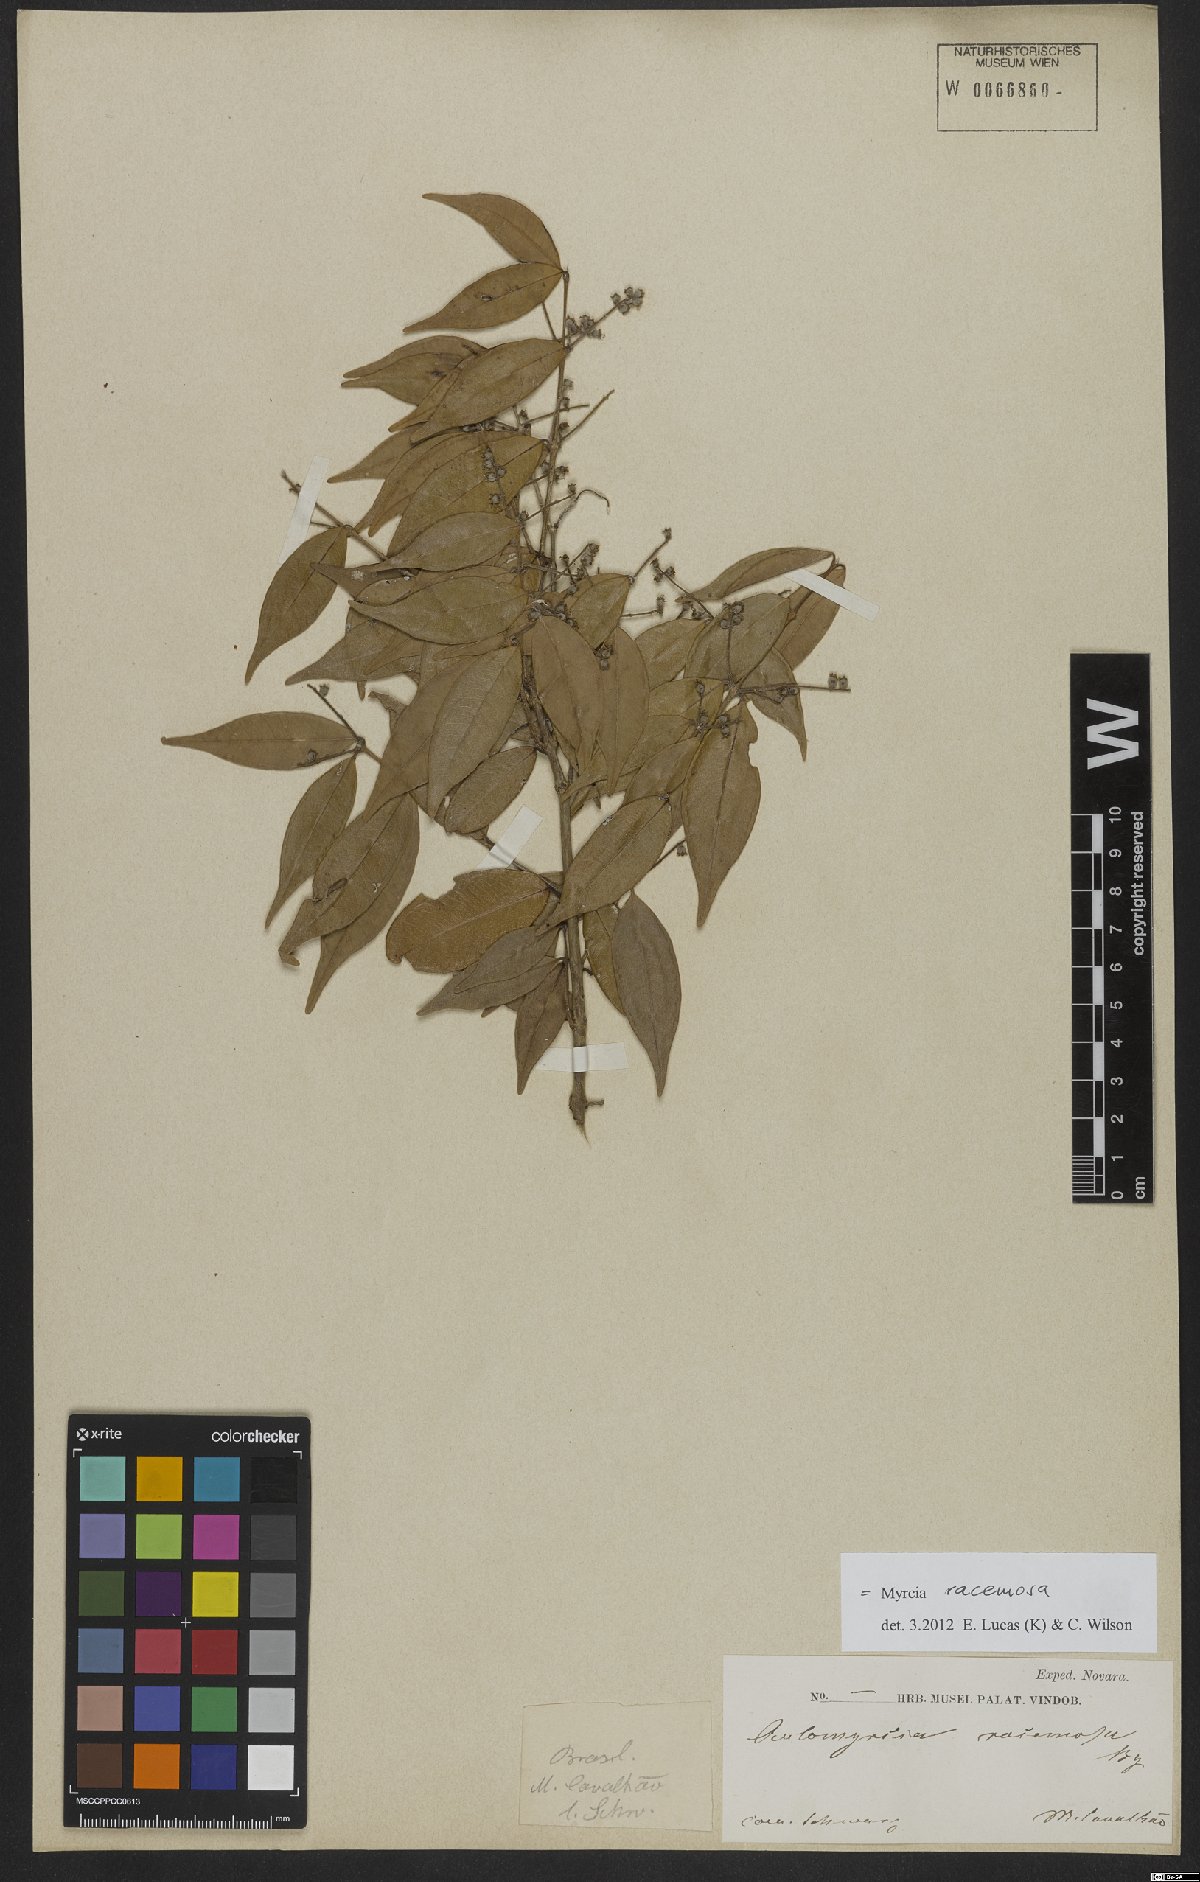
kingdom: Plantae
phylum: Tracheophyta
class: Magnoliopsida
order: Myrtales
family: Myrtaceae
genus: Myrcia
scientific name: Myrcia racemosa
